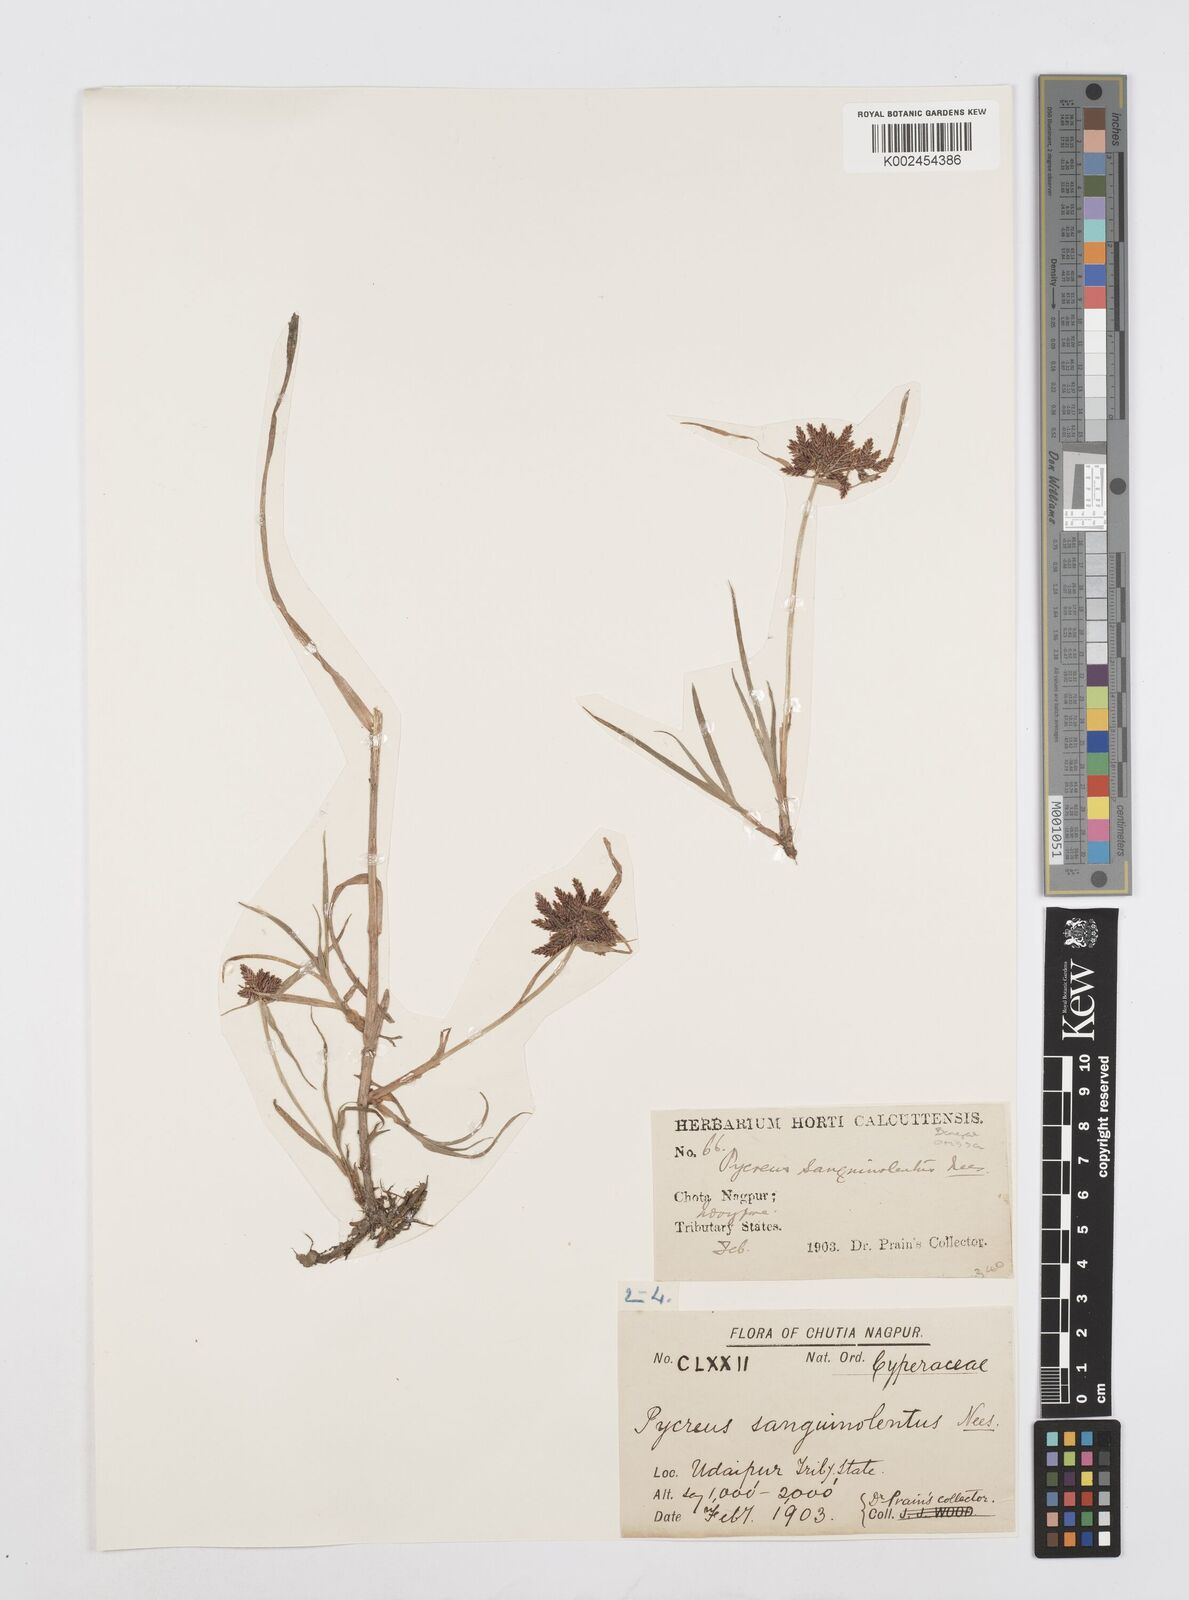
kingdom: Plantae
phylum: Tracheophyta
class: Liliopsida
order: Poales
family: Cyperaceae
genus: Cyperus
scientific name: Cyperus sanguinolentus
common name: Purpleglume flatsedge
